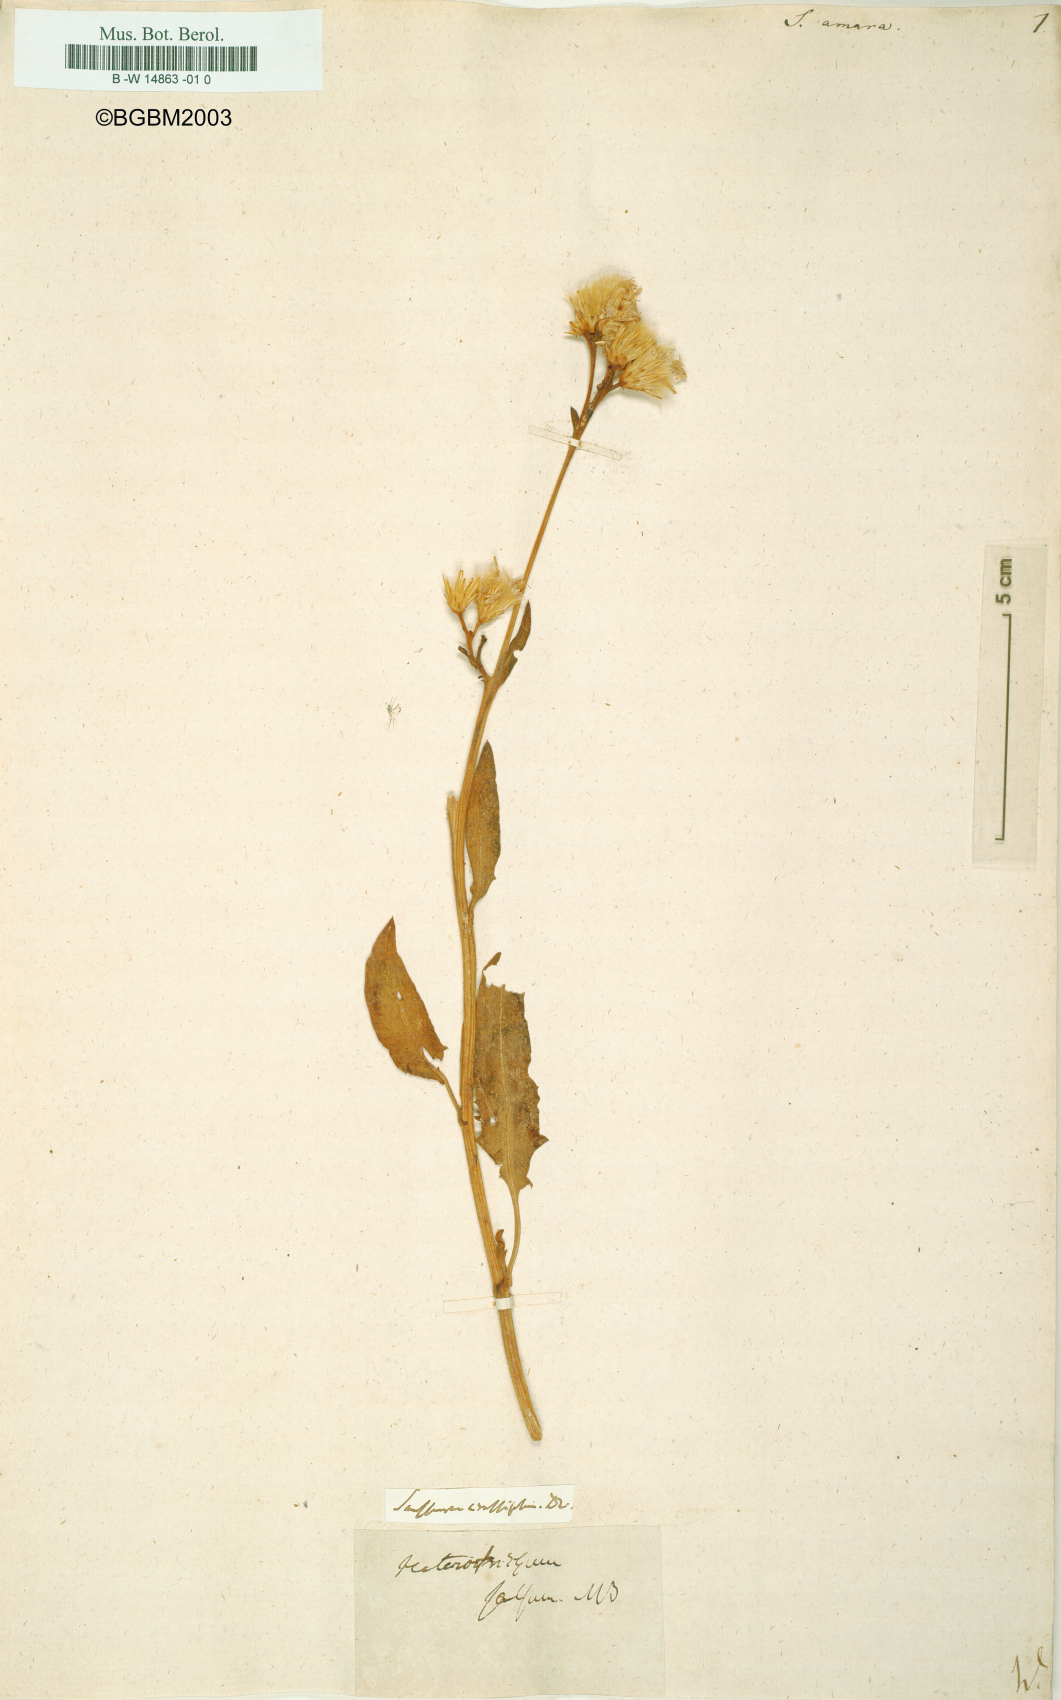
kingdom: Plantae
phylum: Tracheophyta
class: Magnoliopsida
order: Asterales
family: Asteraceae
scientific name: Asteraceae
